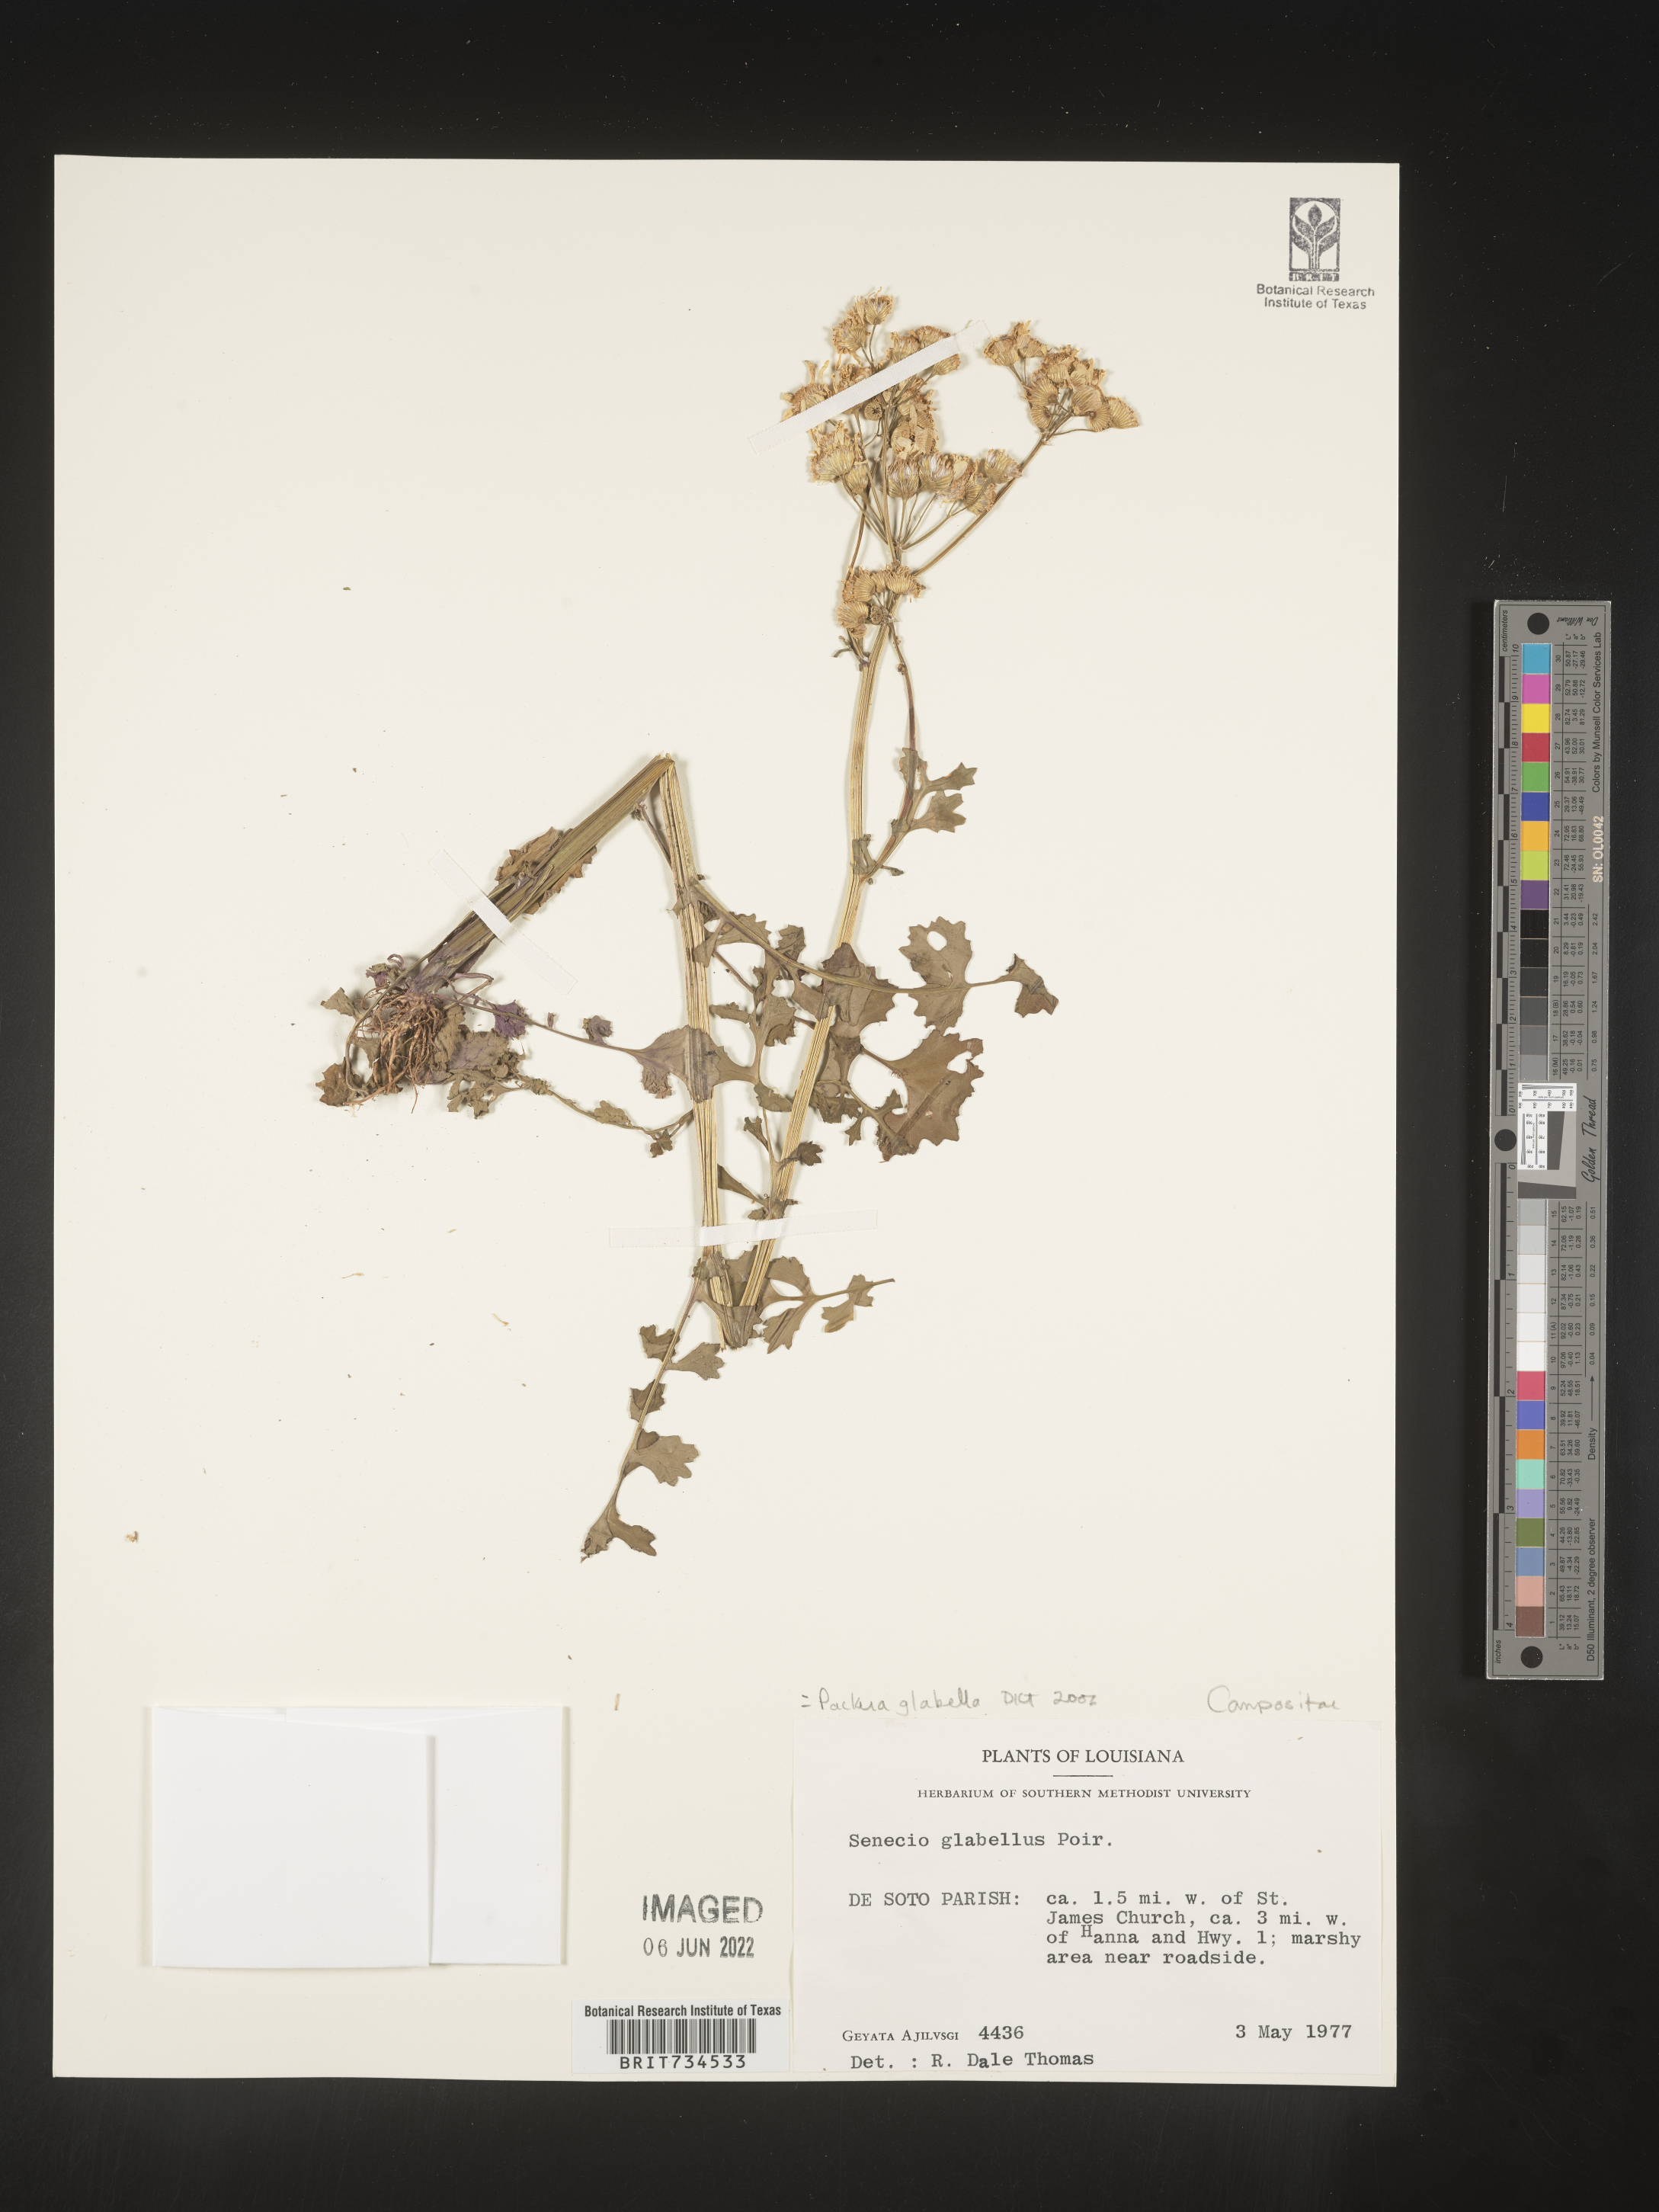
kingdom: Plantae
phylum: Tracheophyta
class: Magnoliopsida
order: Asterales
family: Asteraceae
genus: Packera
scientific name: Packera glabella
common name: Butterweed
